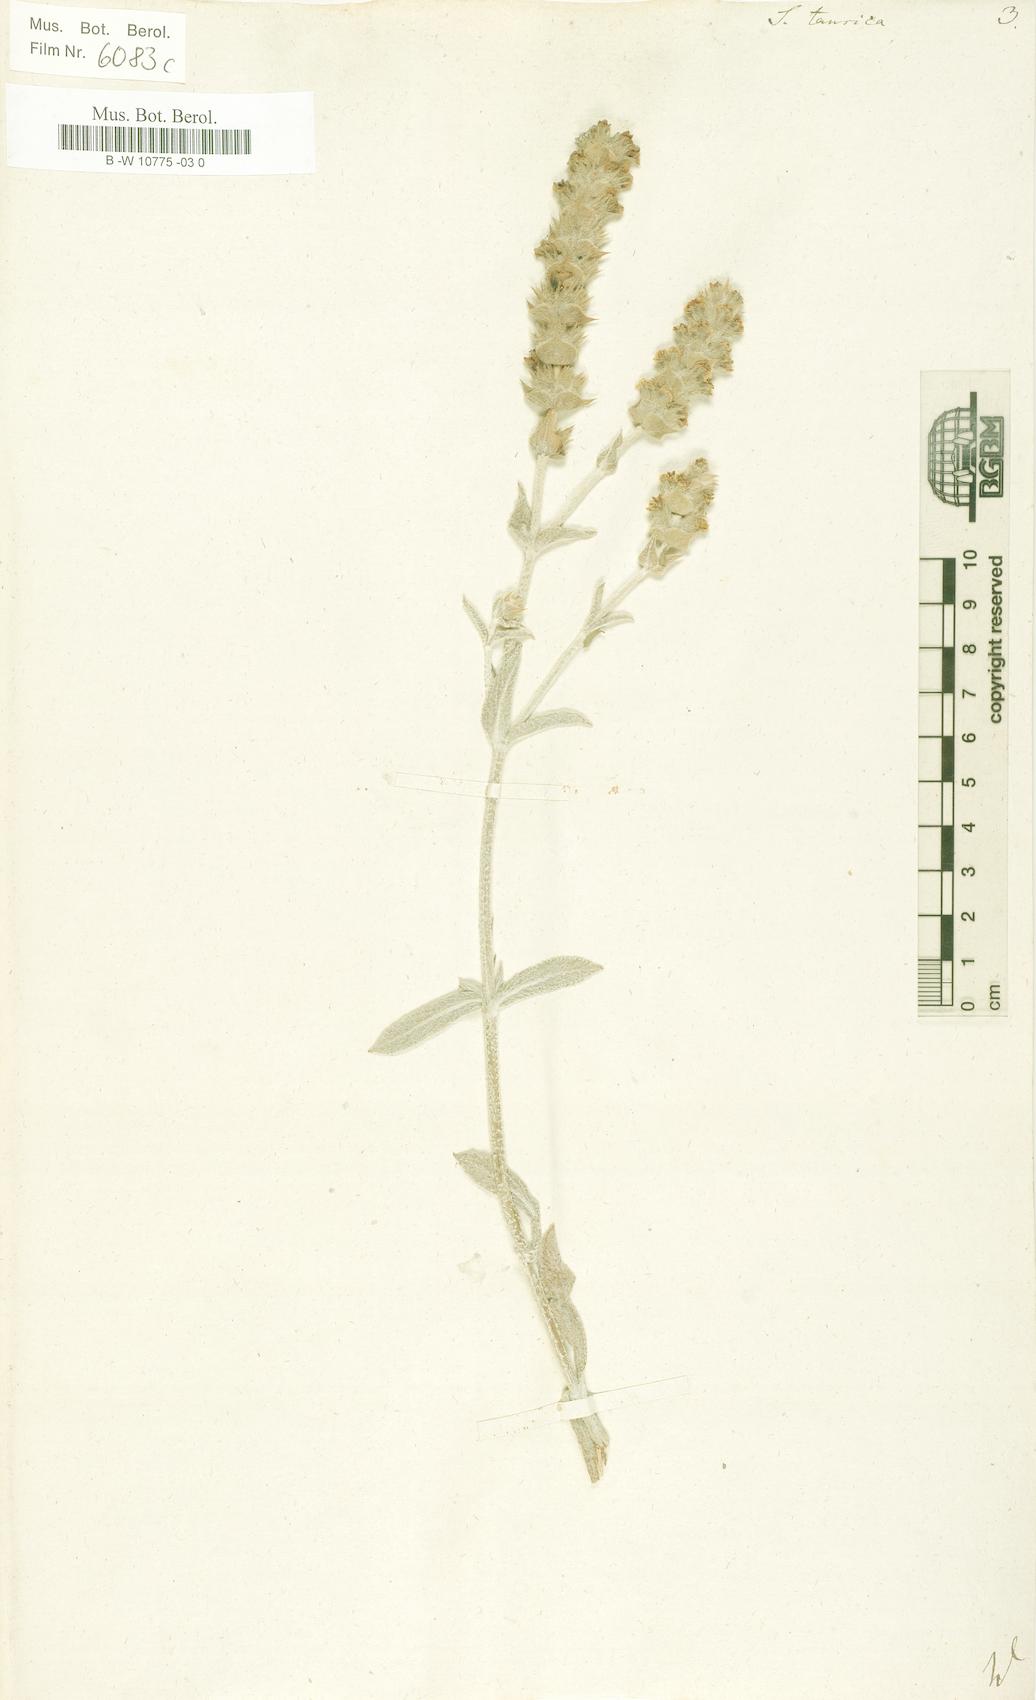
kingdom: Plantae
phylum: Tracheophyta
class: Magnoliopsida
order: Lamiales
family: Lamiaceae
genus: Sideritis
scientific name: Sideritis taurica
